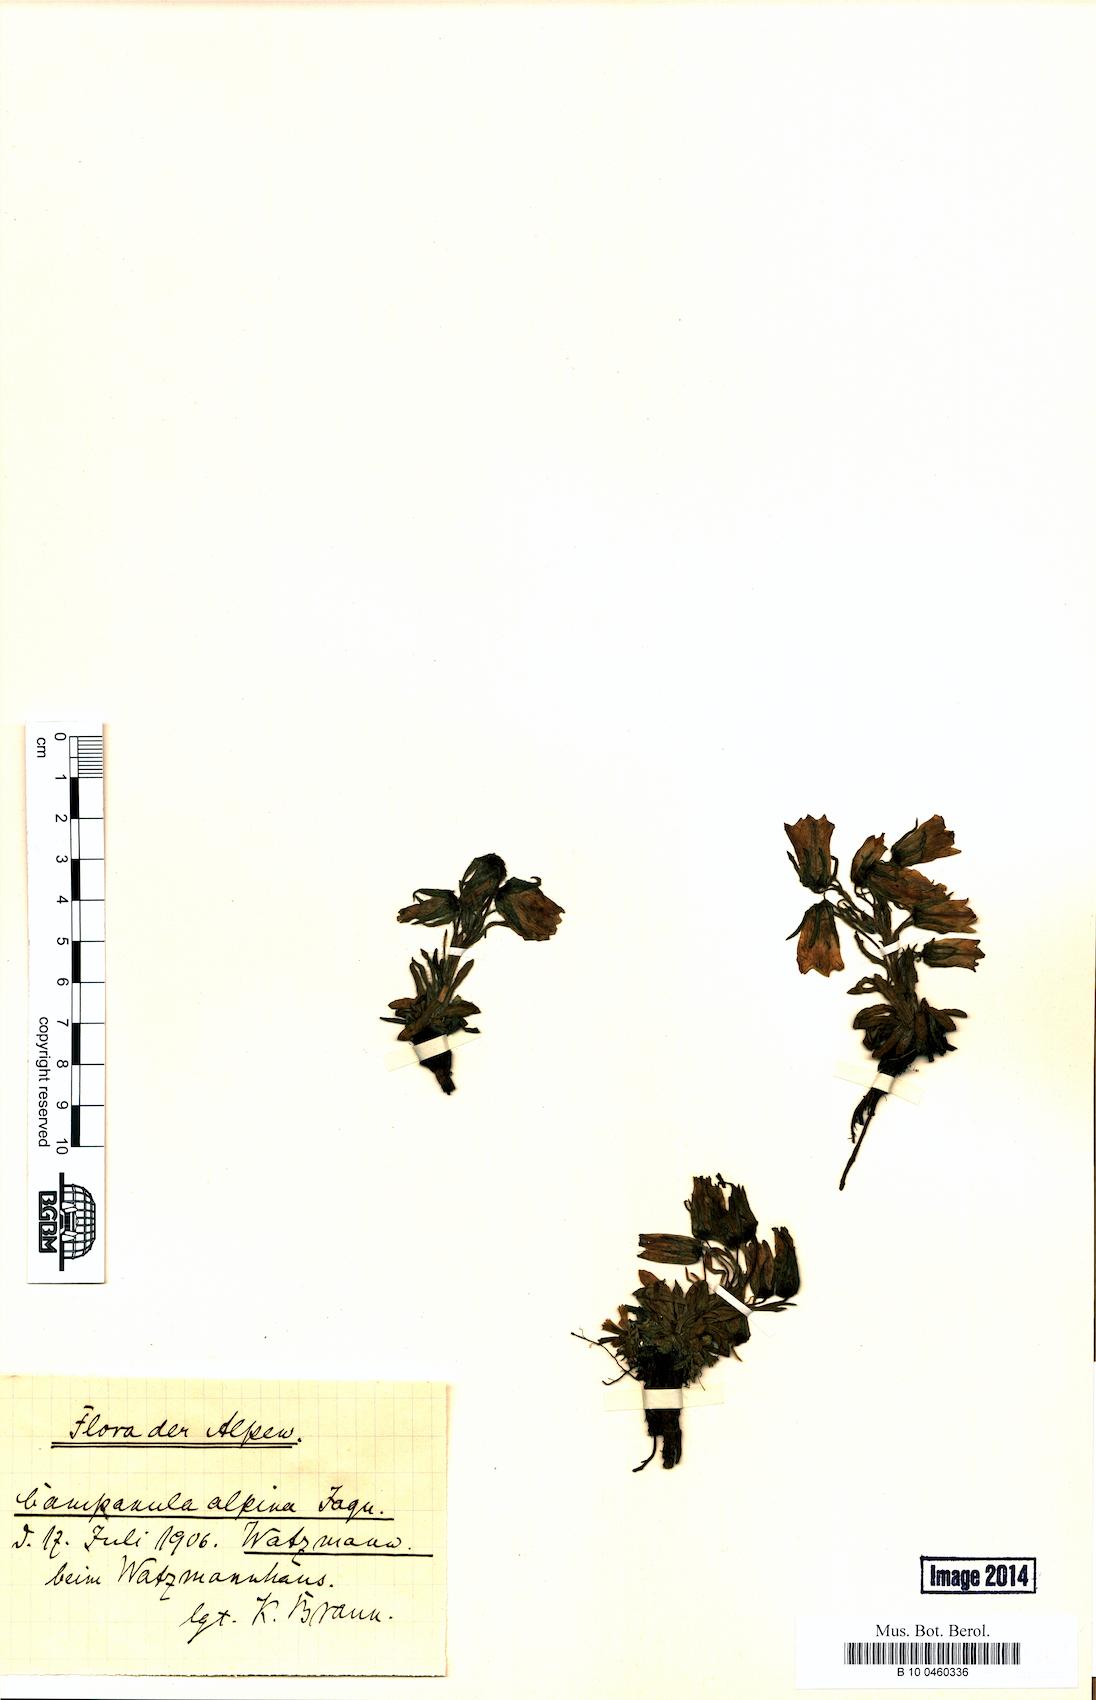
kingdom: Plantae
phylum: Tracheophyta
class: Magnoliopsida
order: Asterales
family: Campanulaceae
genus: Campanula
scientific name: Campanula alpina
